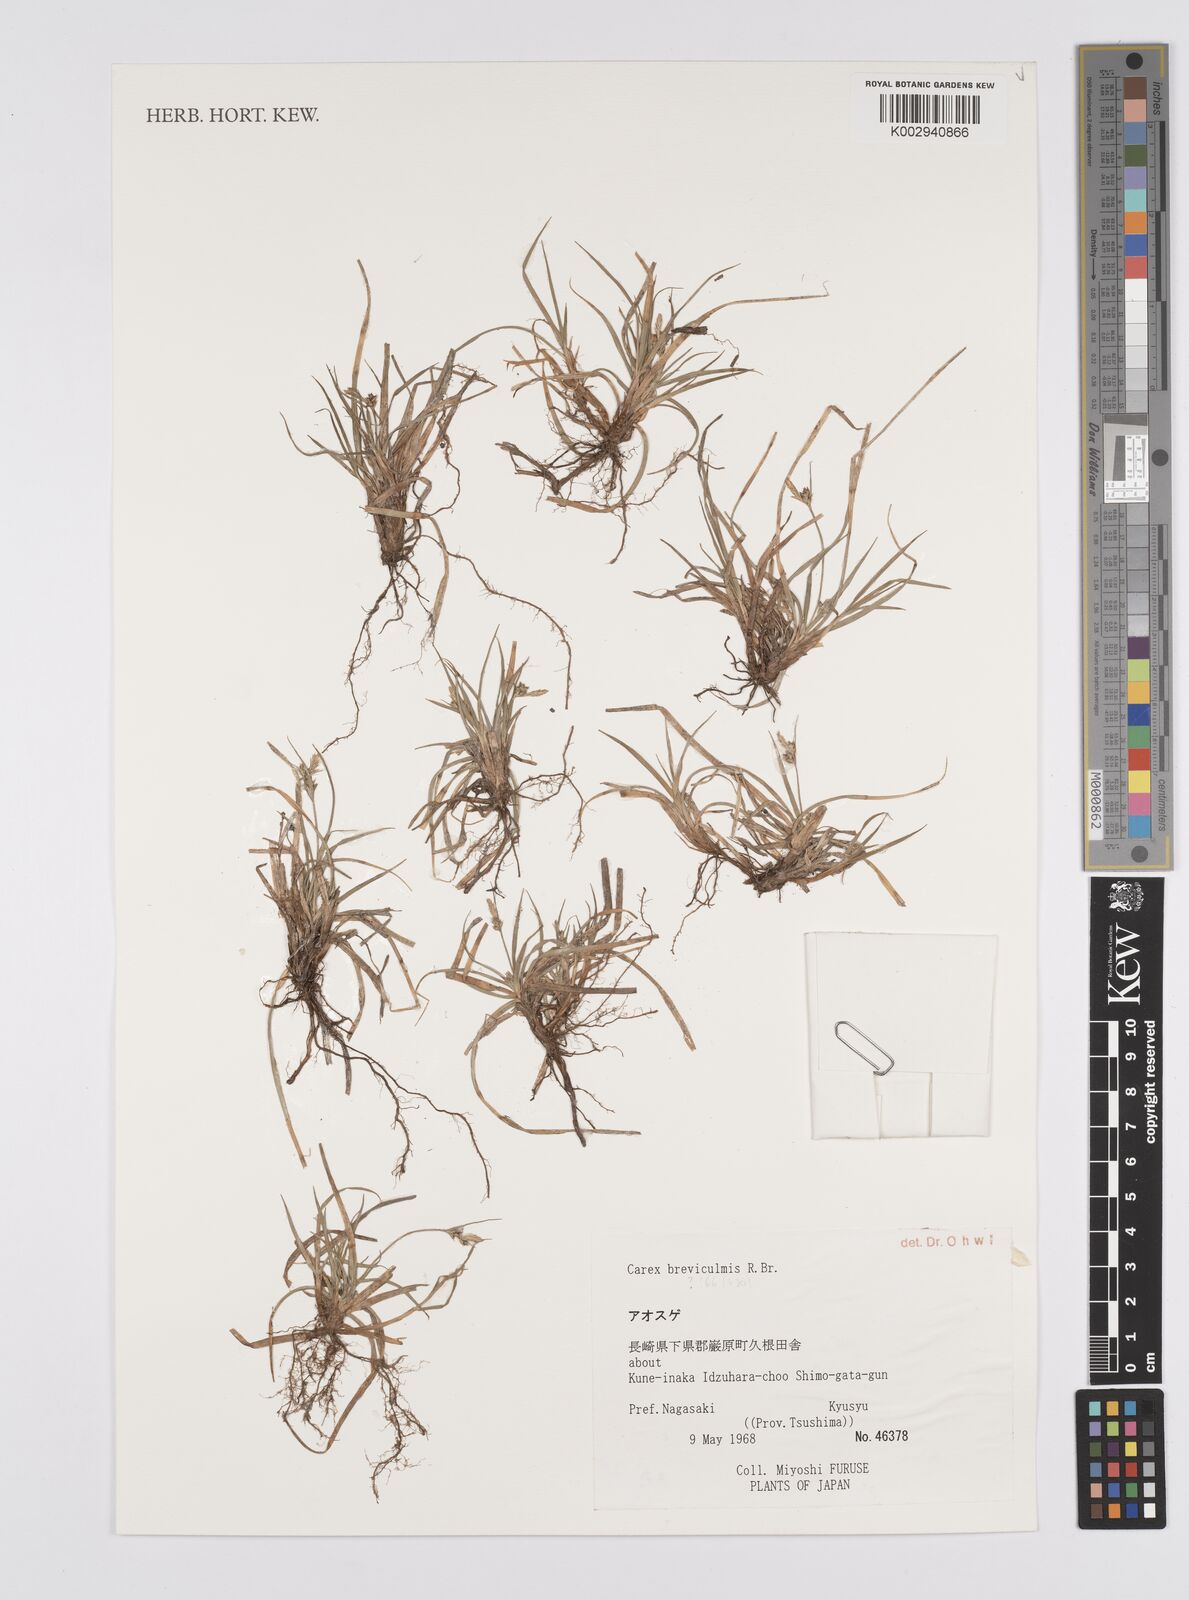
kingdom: Plantae
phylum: Tracheophyta
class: Liliopsida
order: Poales
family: Cyperaceae
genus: Carex
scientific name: Carex breviculmis
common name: Asian shortstem sedge
